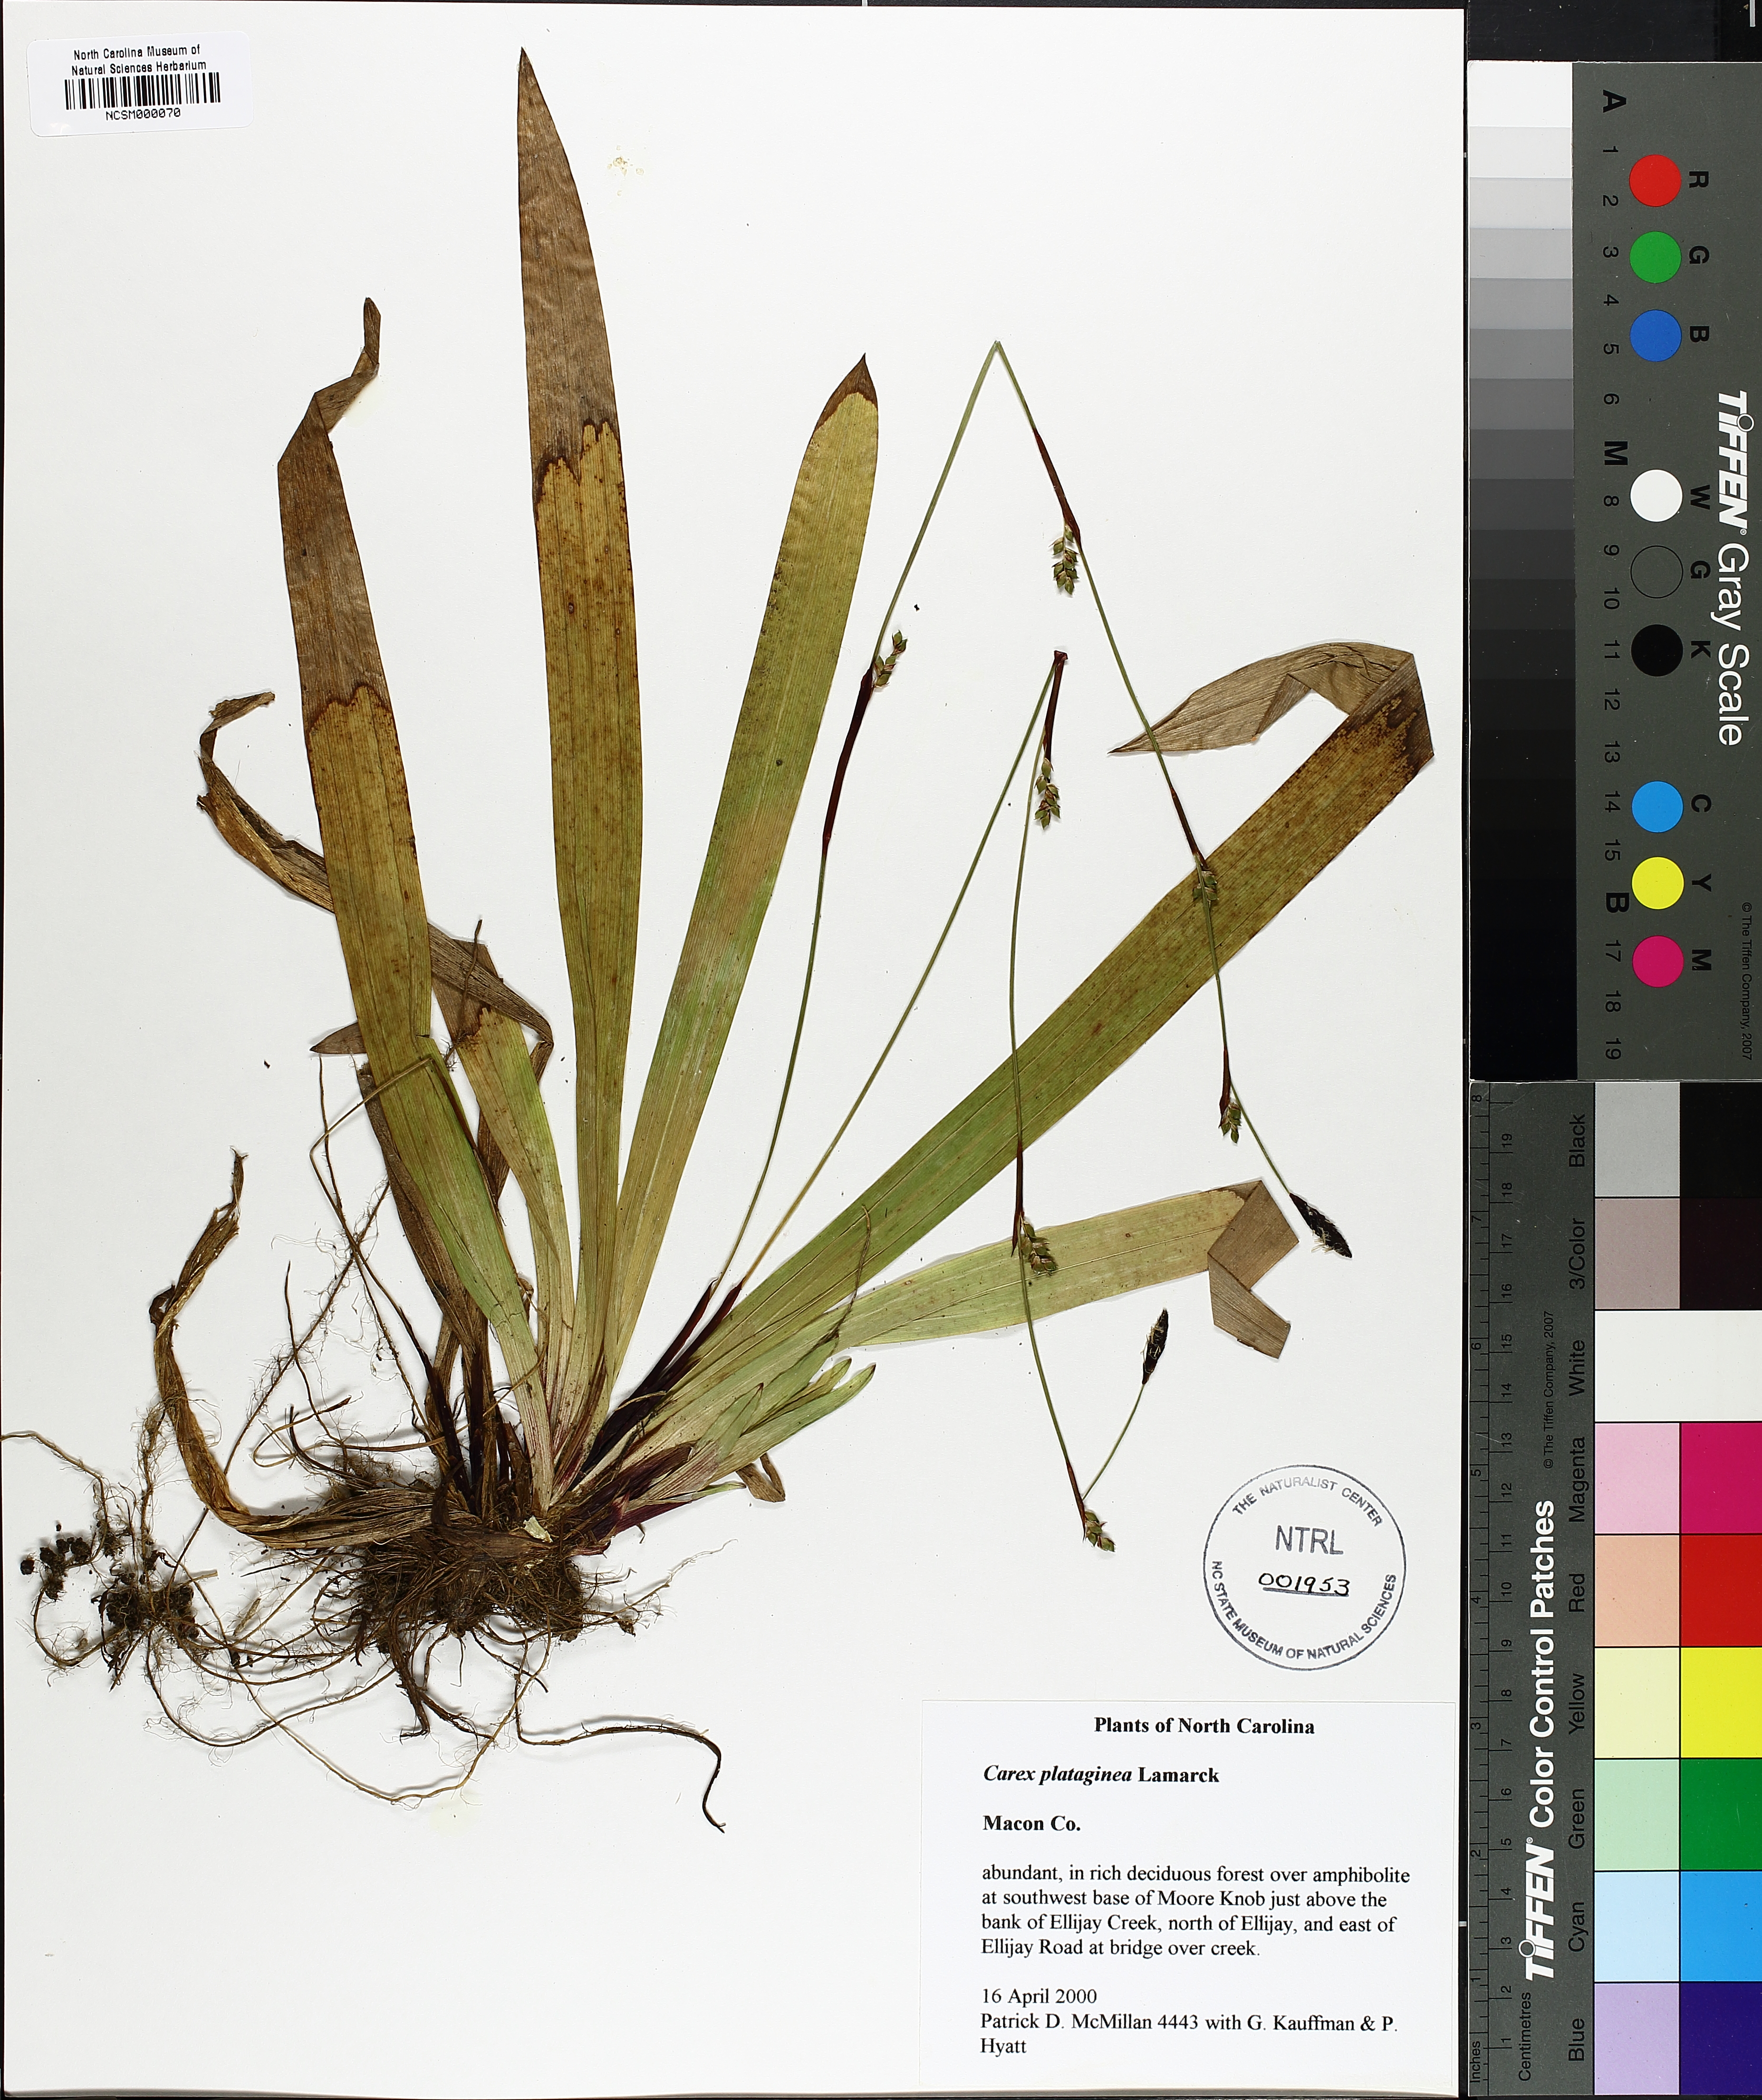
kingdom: Plantae
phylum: Tracheophyta
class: Liliopsida
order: Poales
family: Cyperaceae
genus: Carex
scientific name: Carex plantaginea
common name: Plantain-leaved sedge
